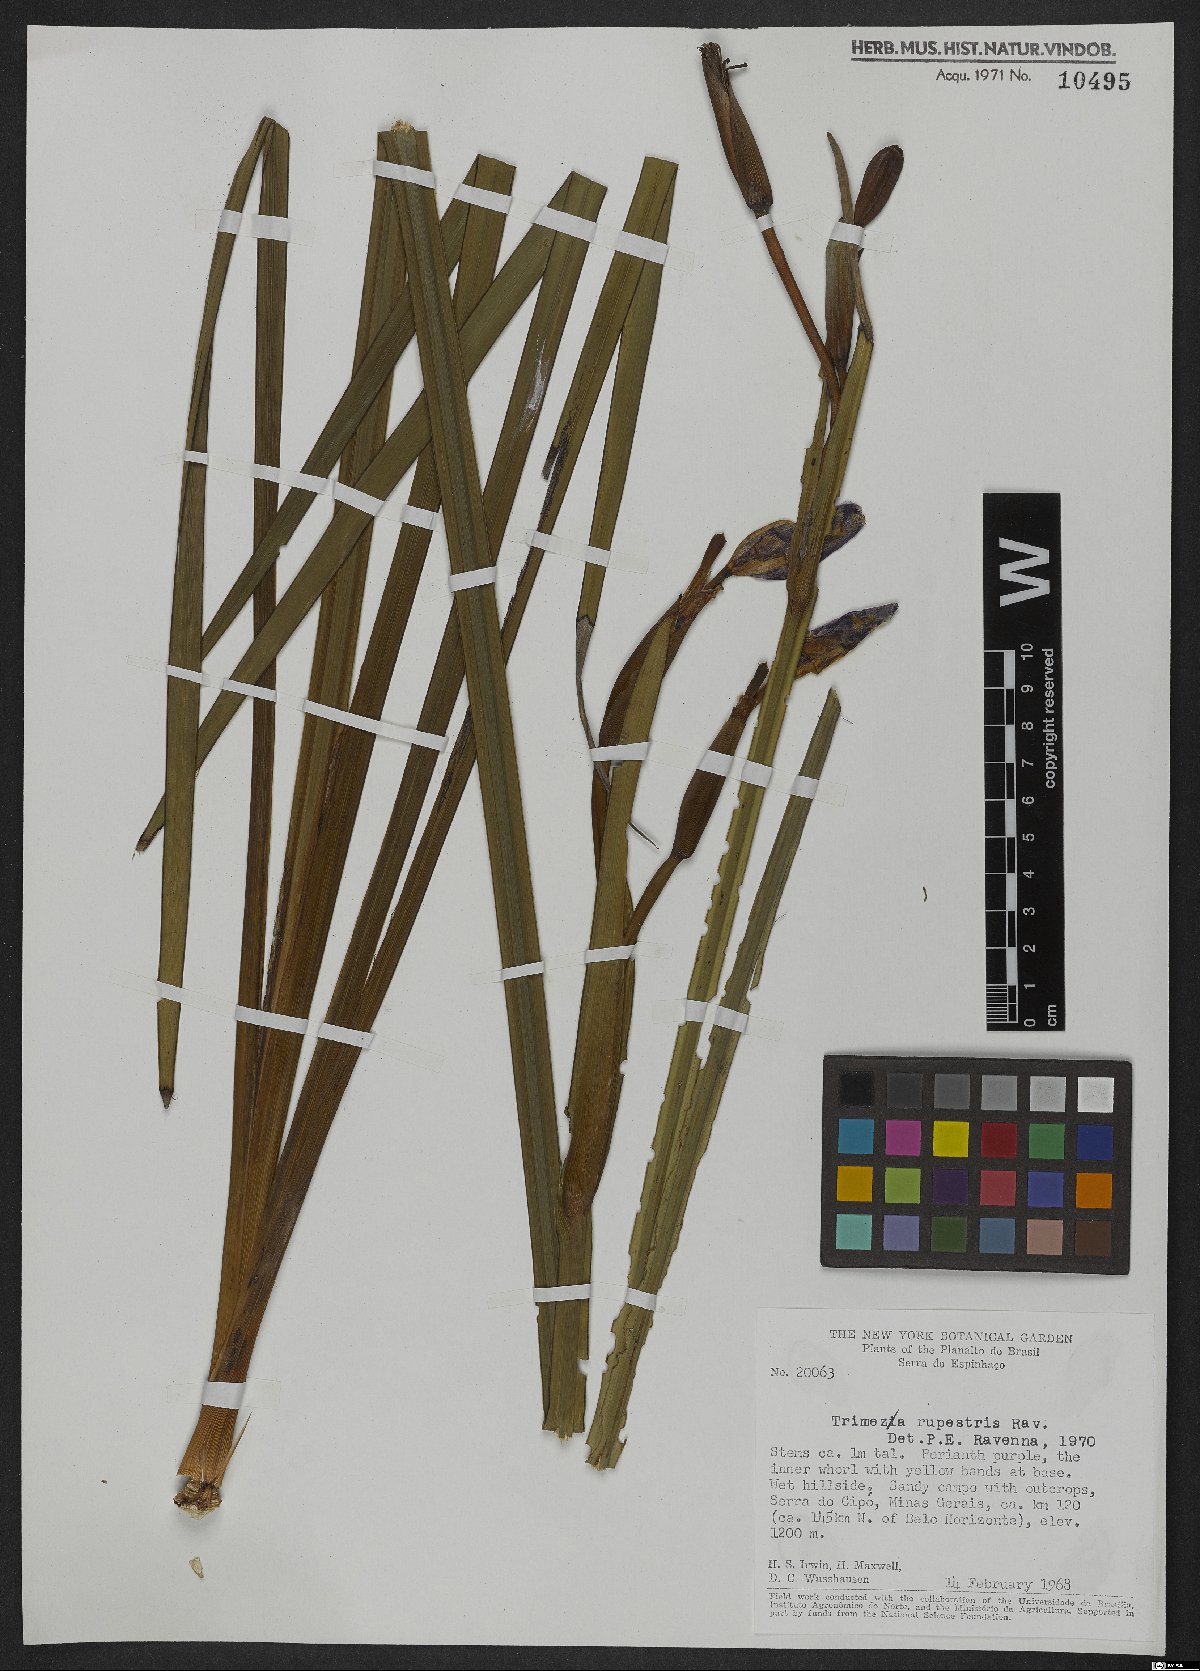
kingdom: Plantae
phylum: Tracheophyta
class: Liliopsida
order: Asparagales
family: Iridaceae
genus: Trimezia
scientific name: Trimezia rupestris
